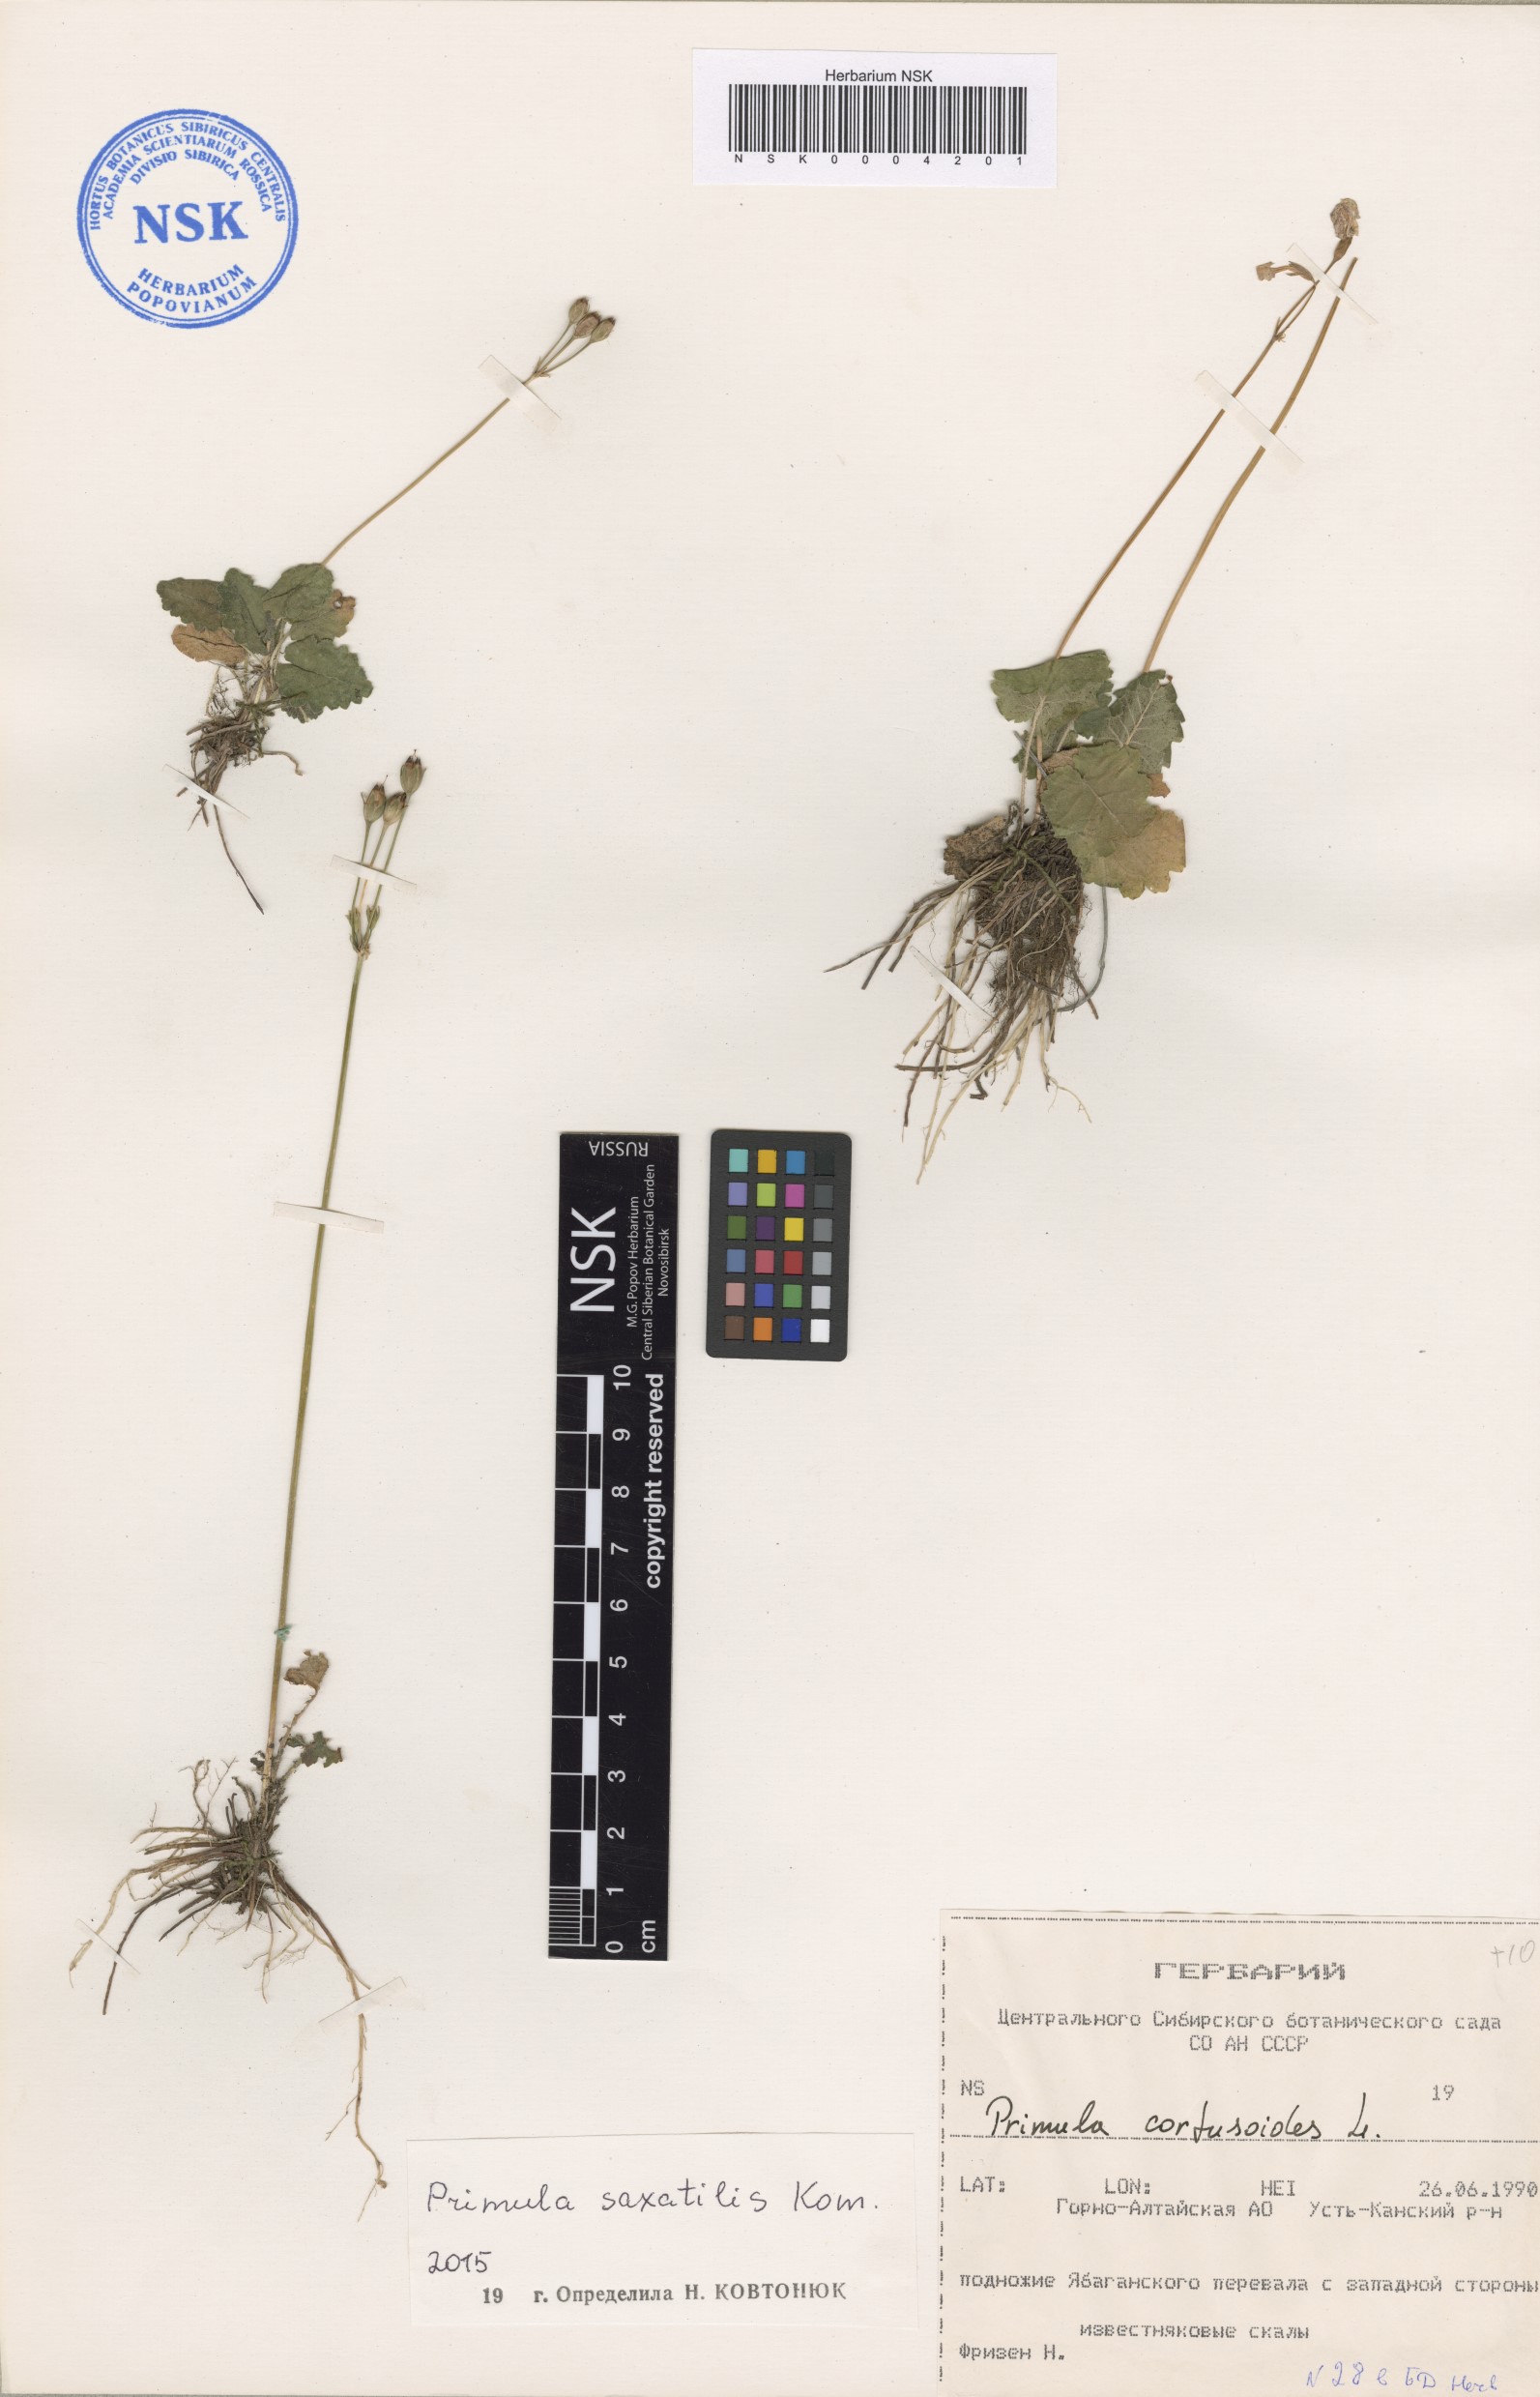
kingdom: Plantae
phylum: Tracheophyta
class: Magnoliopsida
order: Ericales
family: Primulaceae
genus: Primula
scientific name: Primula saxatilis
